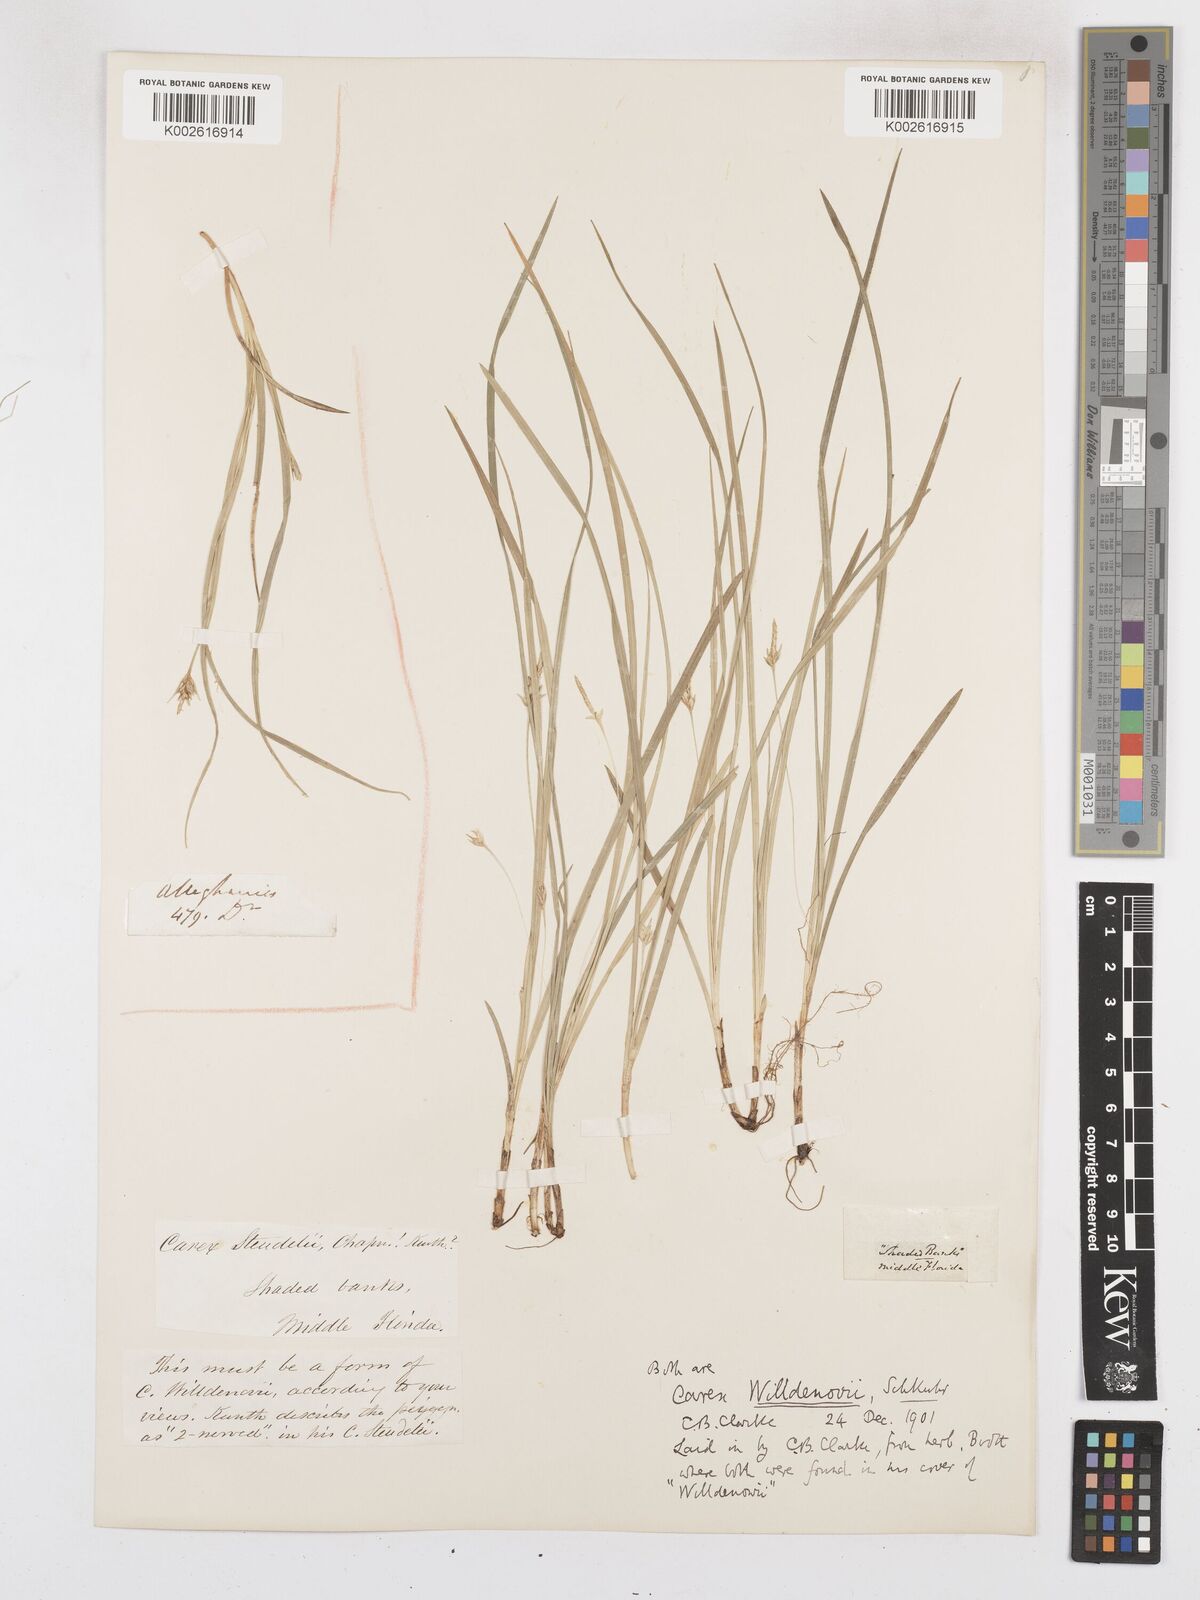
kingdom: Plantae
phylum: Tracheophyta
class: Liliopsida
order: Poales
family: Cyperaceae
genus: Carex
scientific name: Carex willdenowii
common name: Willdenow's sedge
